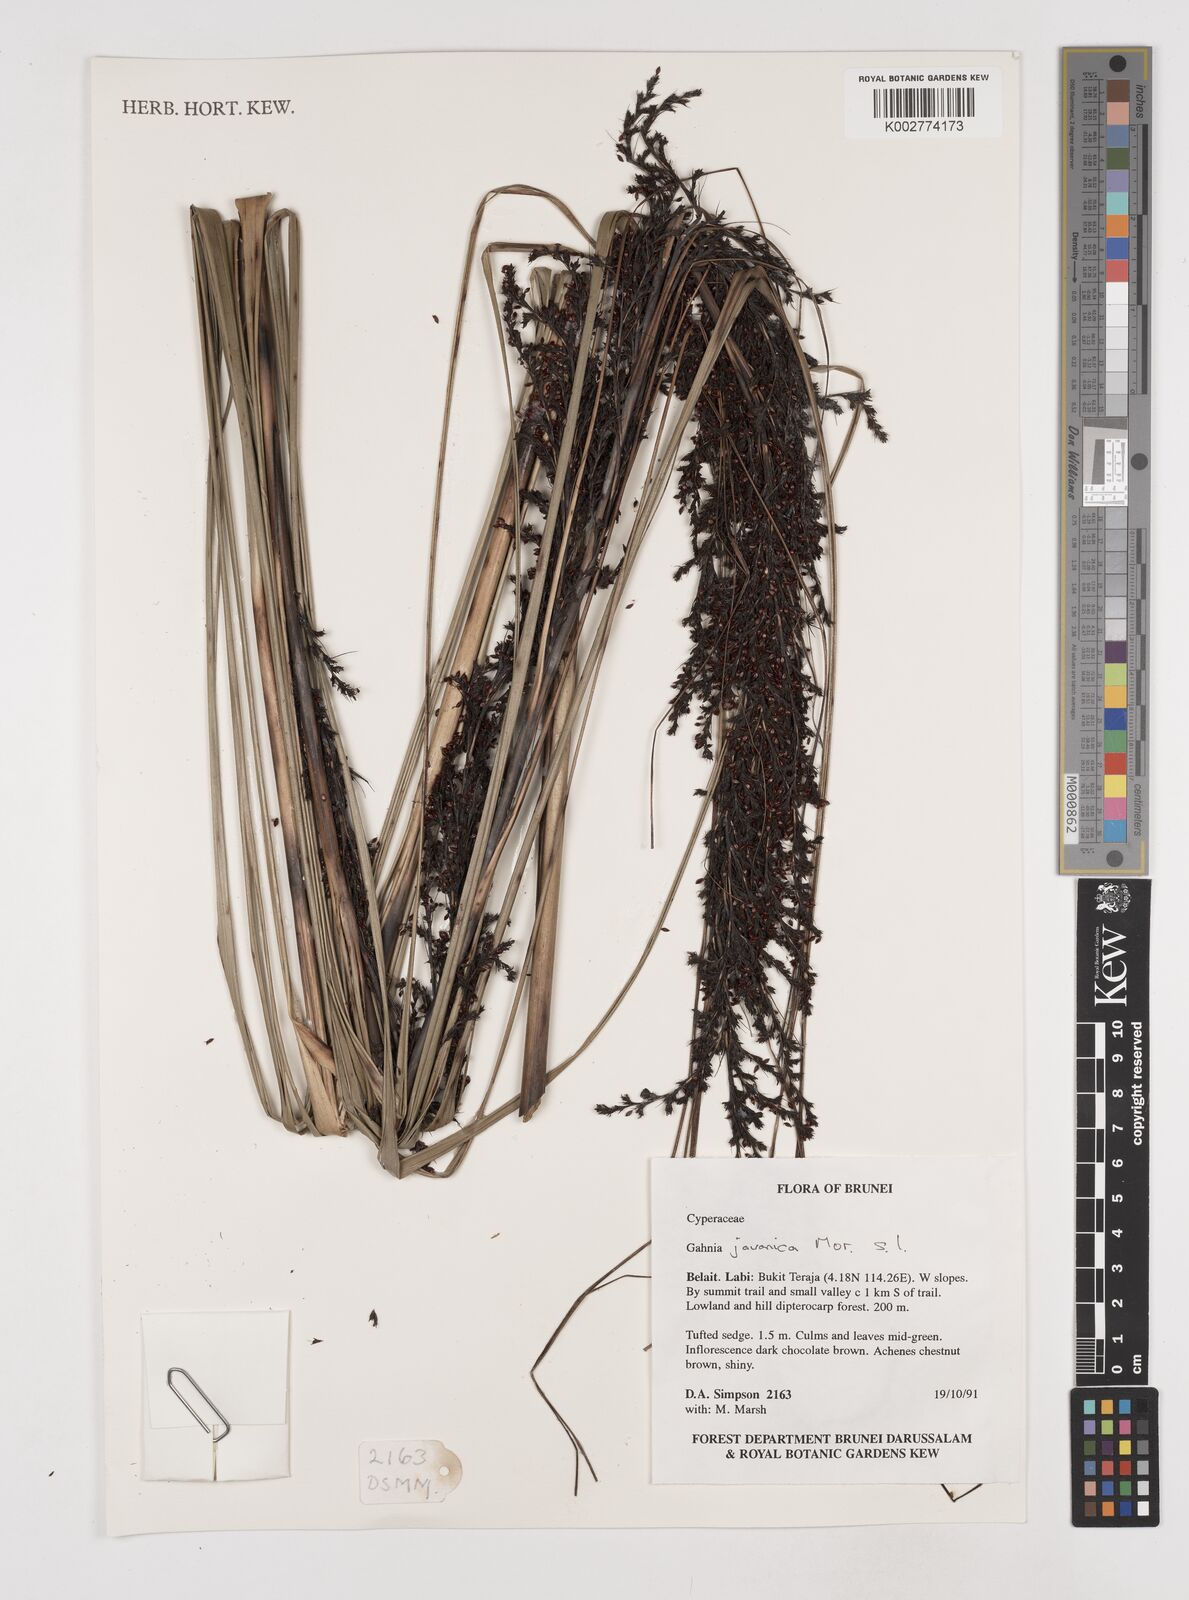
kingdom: Plantae
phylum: Tracheophyta
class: Liliopsida
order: Poales
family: Cyperaceae
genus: Gahnia
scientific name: Gahnia javanica
